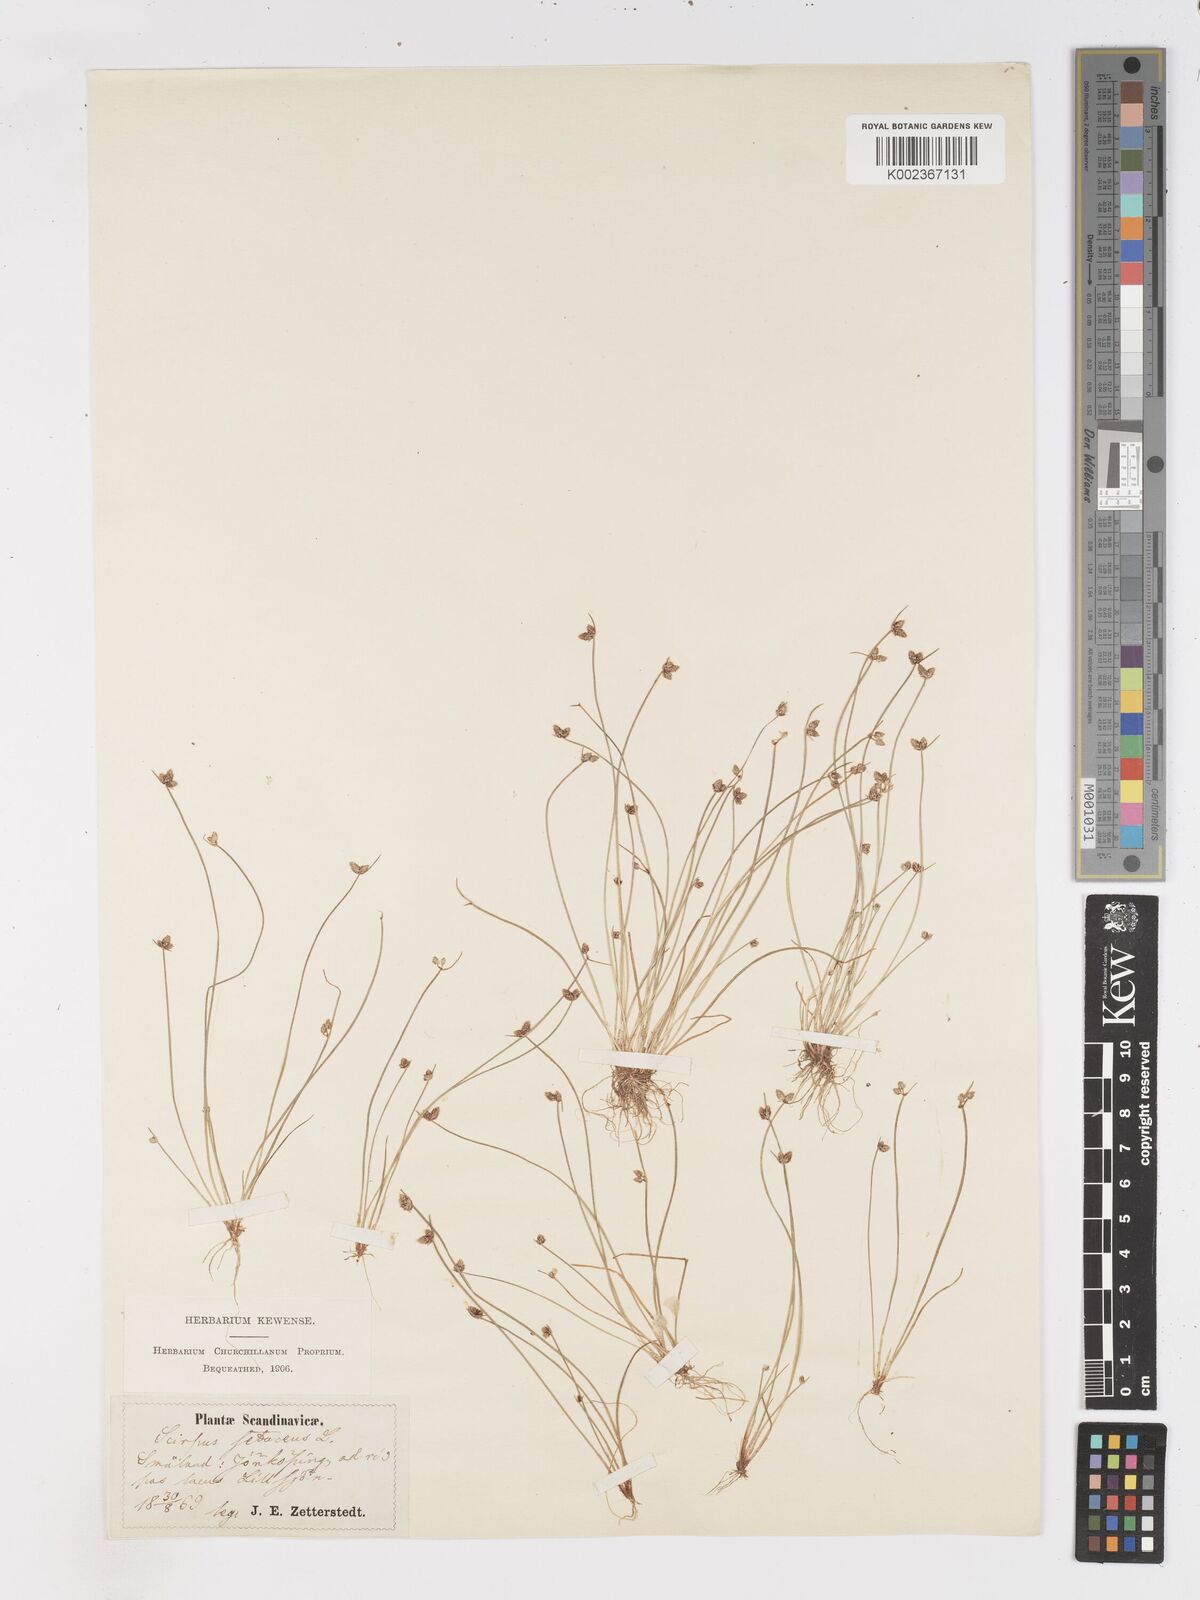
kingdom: Plantae
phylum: Tracheophyta
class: Liliopsida
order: Poales
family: Cyperaceae
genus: Isolepis
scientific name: Isolepis setacea
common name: Bristle club-rush
